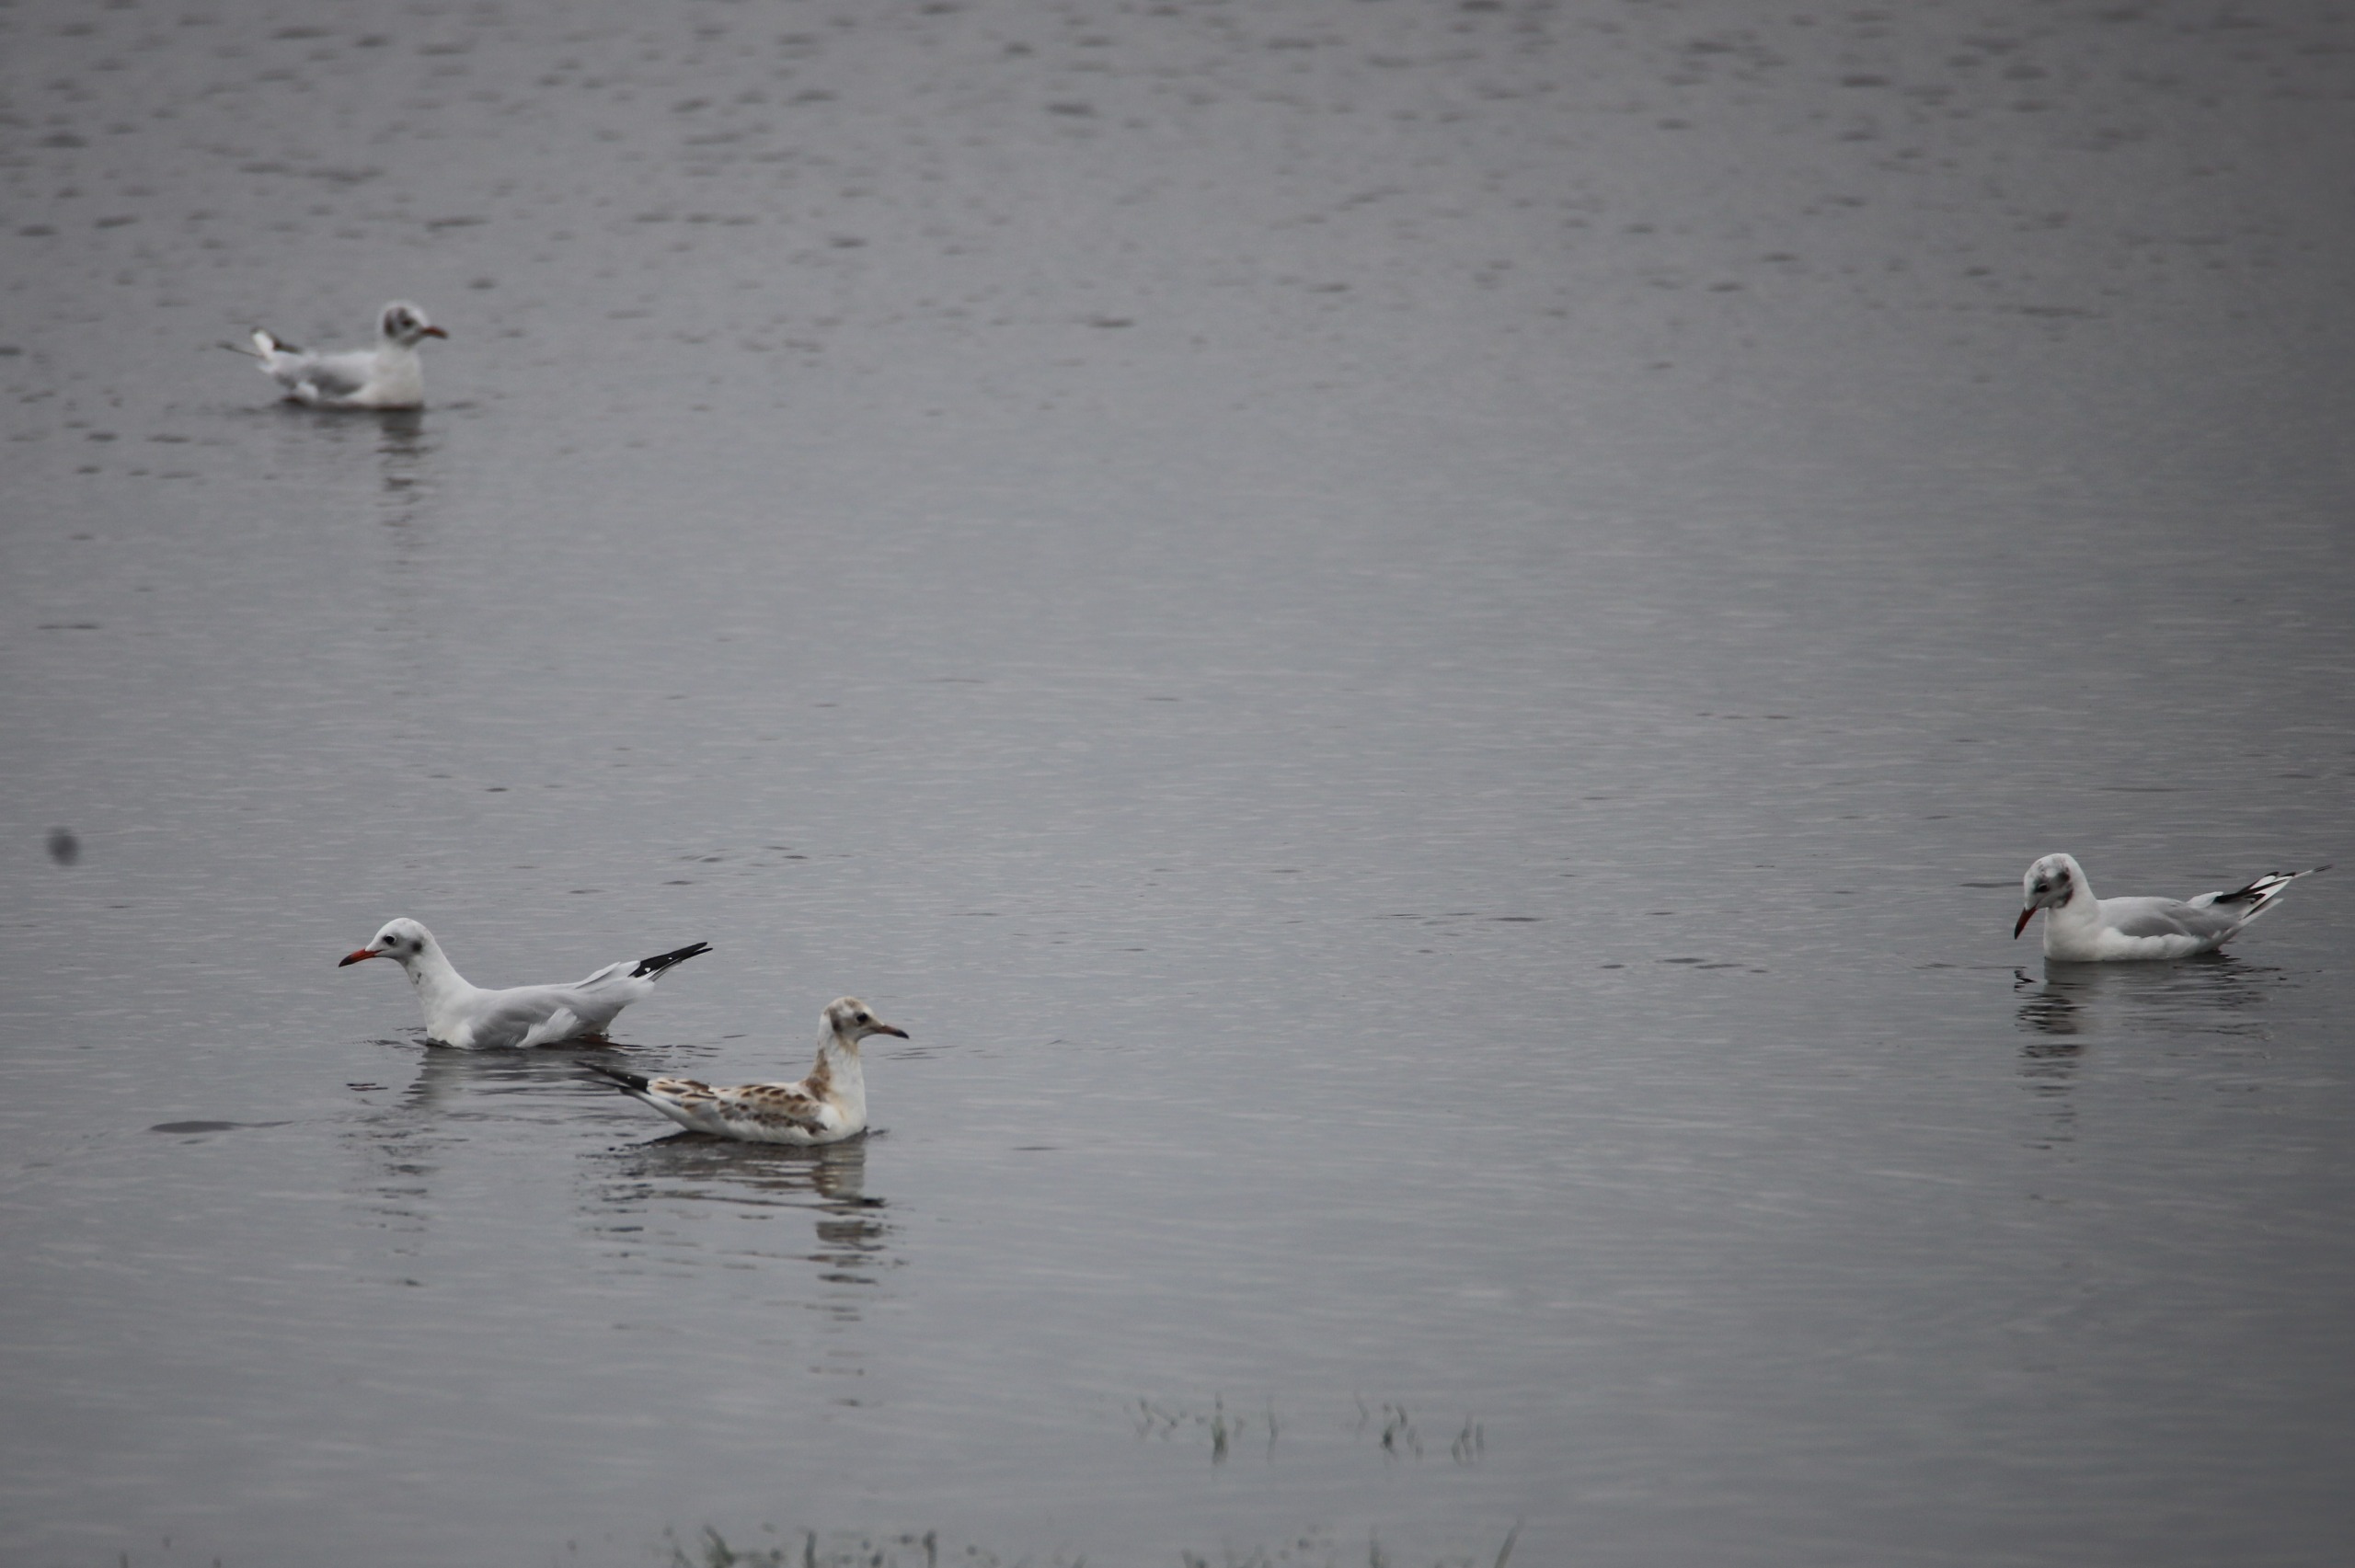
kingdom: Animalia
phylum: Chordata
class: Aves
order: Charadriiformes
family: Laridae
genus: Chroicocephalus
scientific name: Chroicocephalus ridibundus
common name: Hættemåge
